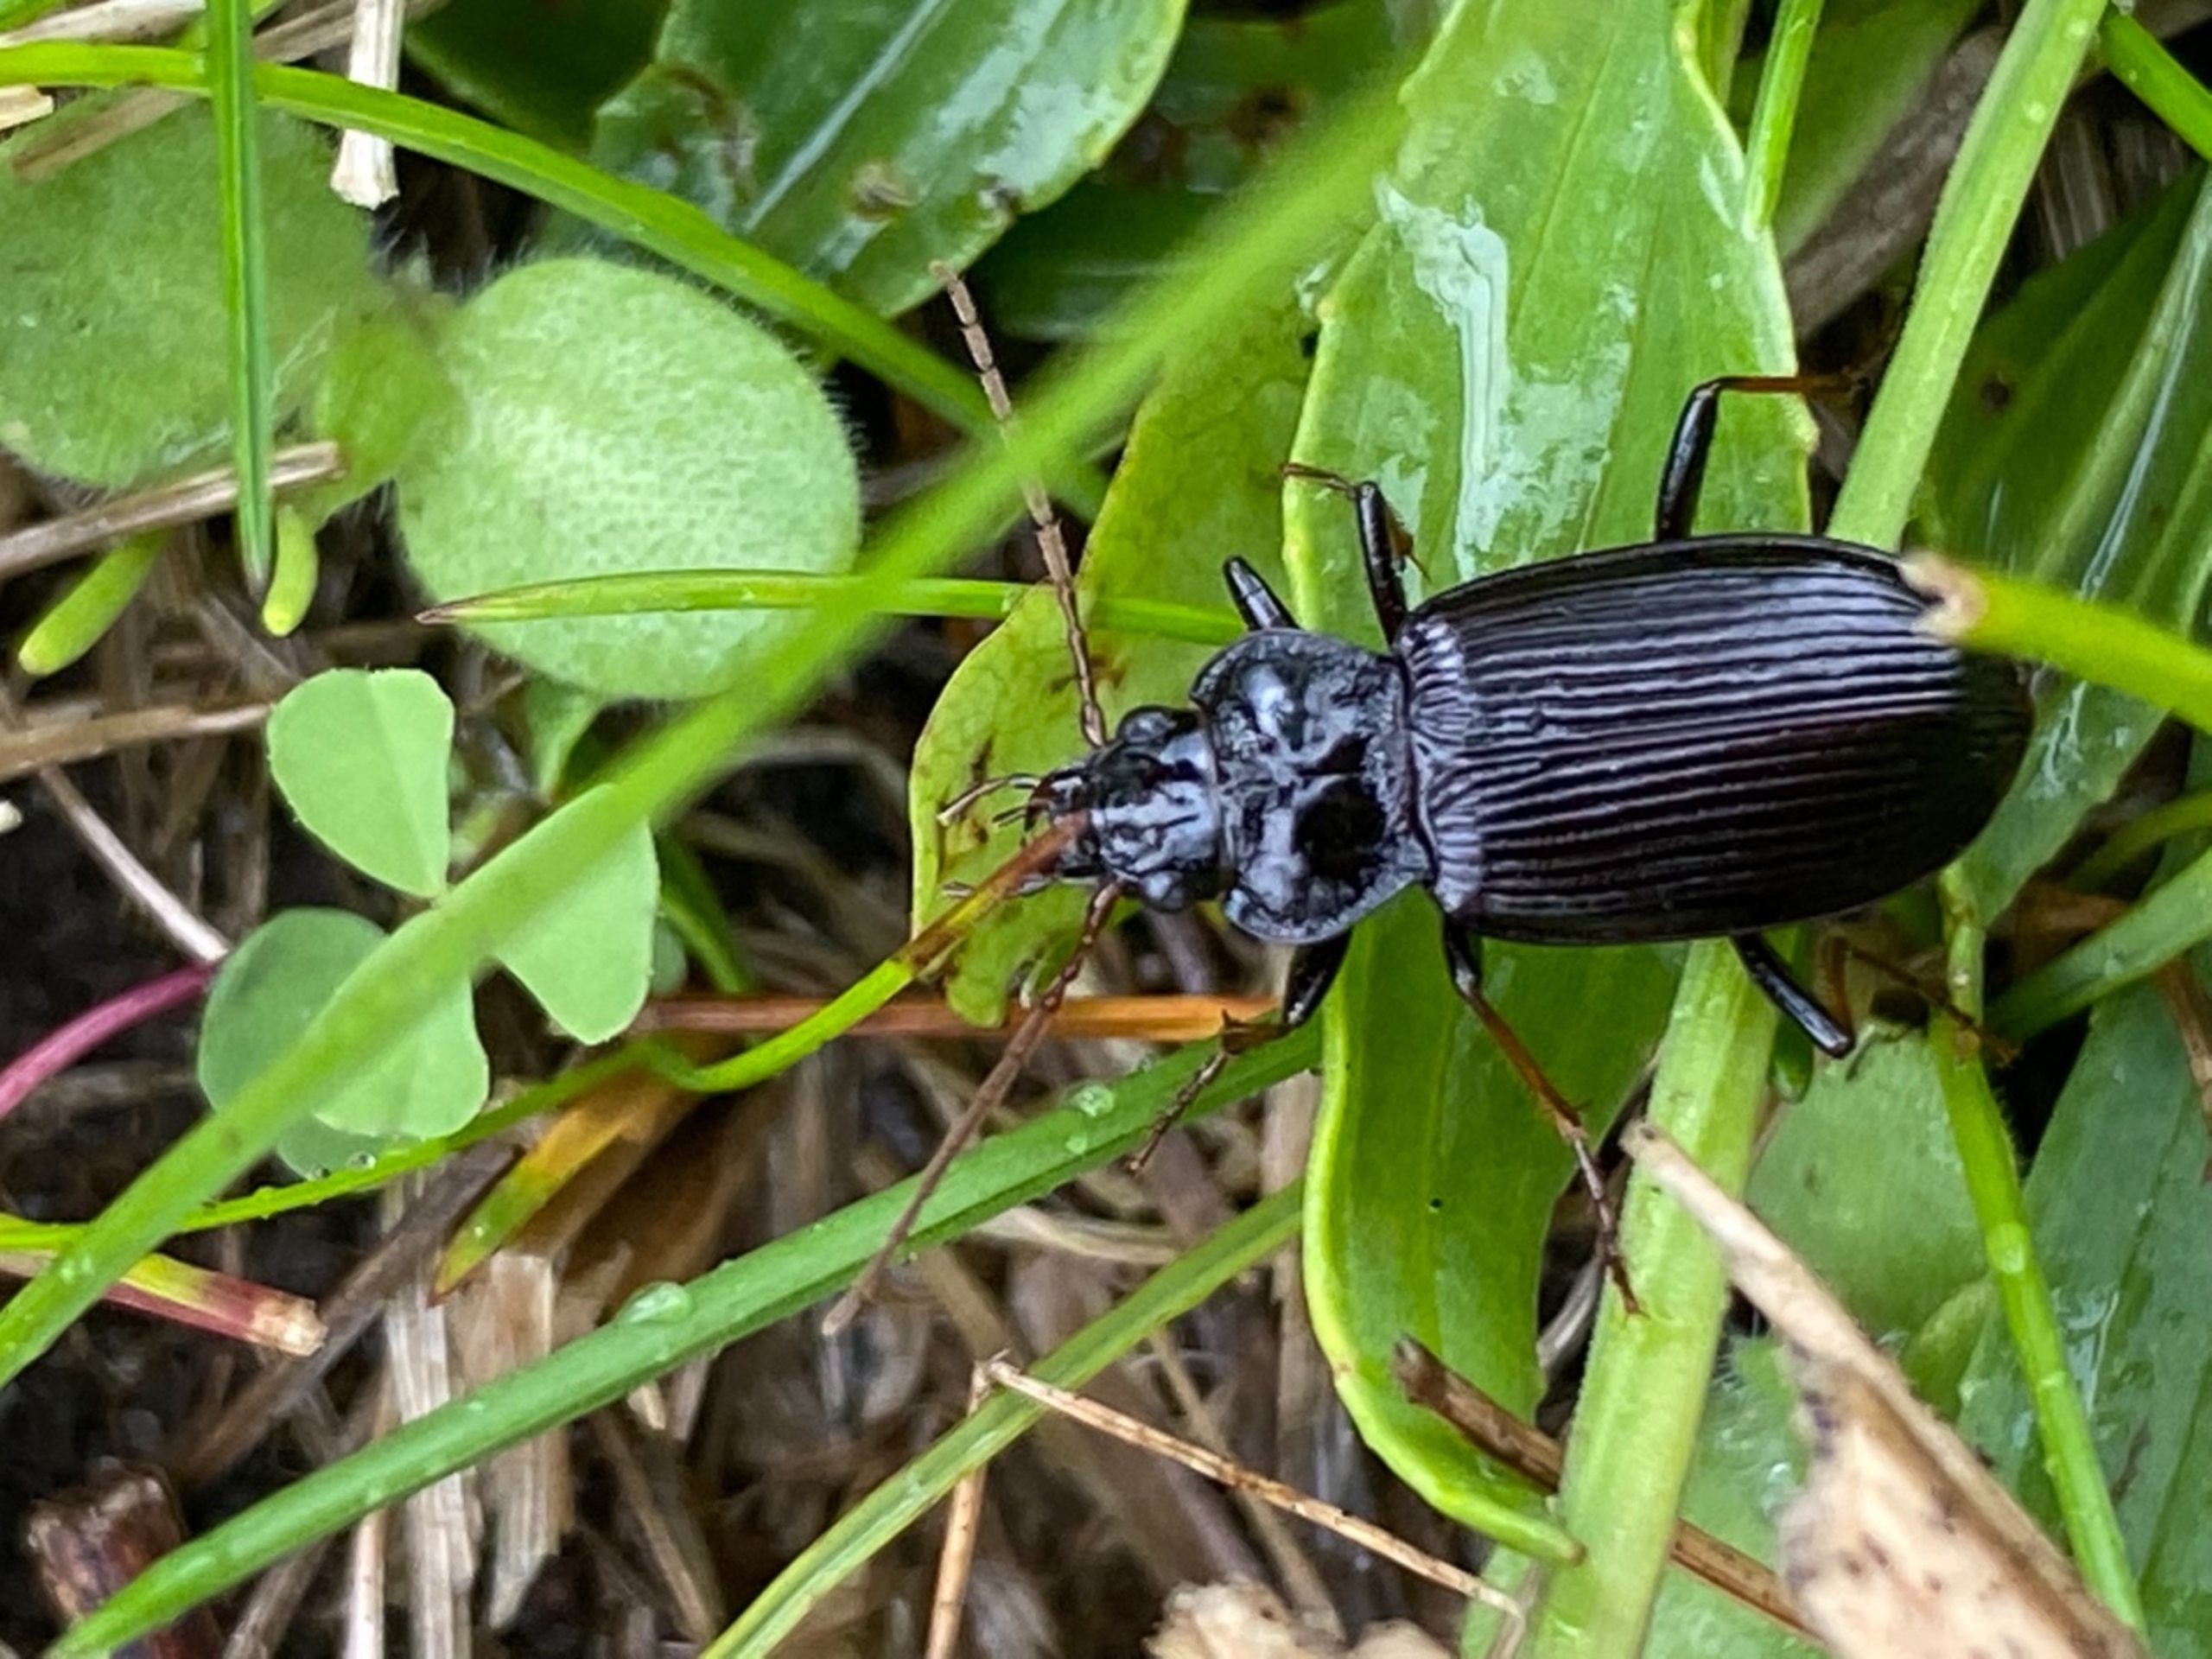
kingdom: Animalia
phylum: Arthropoda
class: Insecta
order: Coleoptera
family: Carabidae
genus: Nebria
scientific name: Nebria
